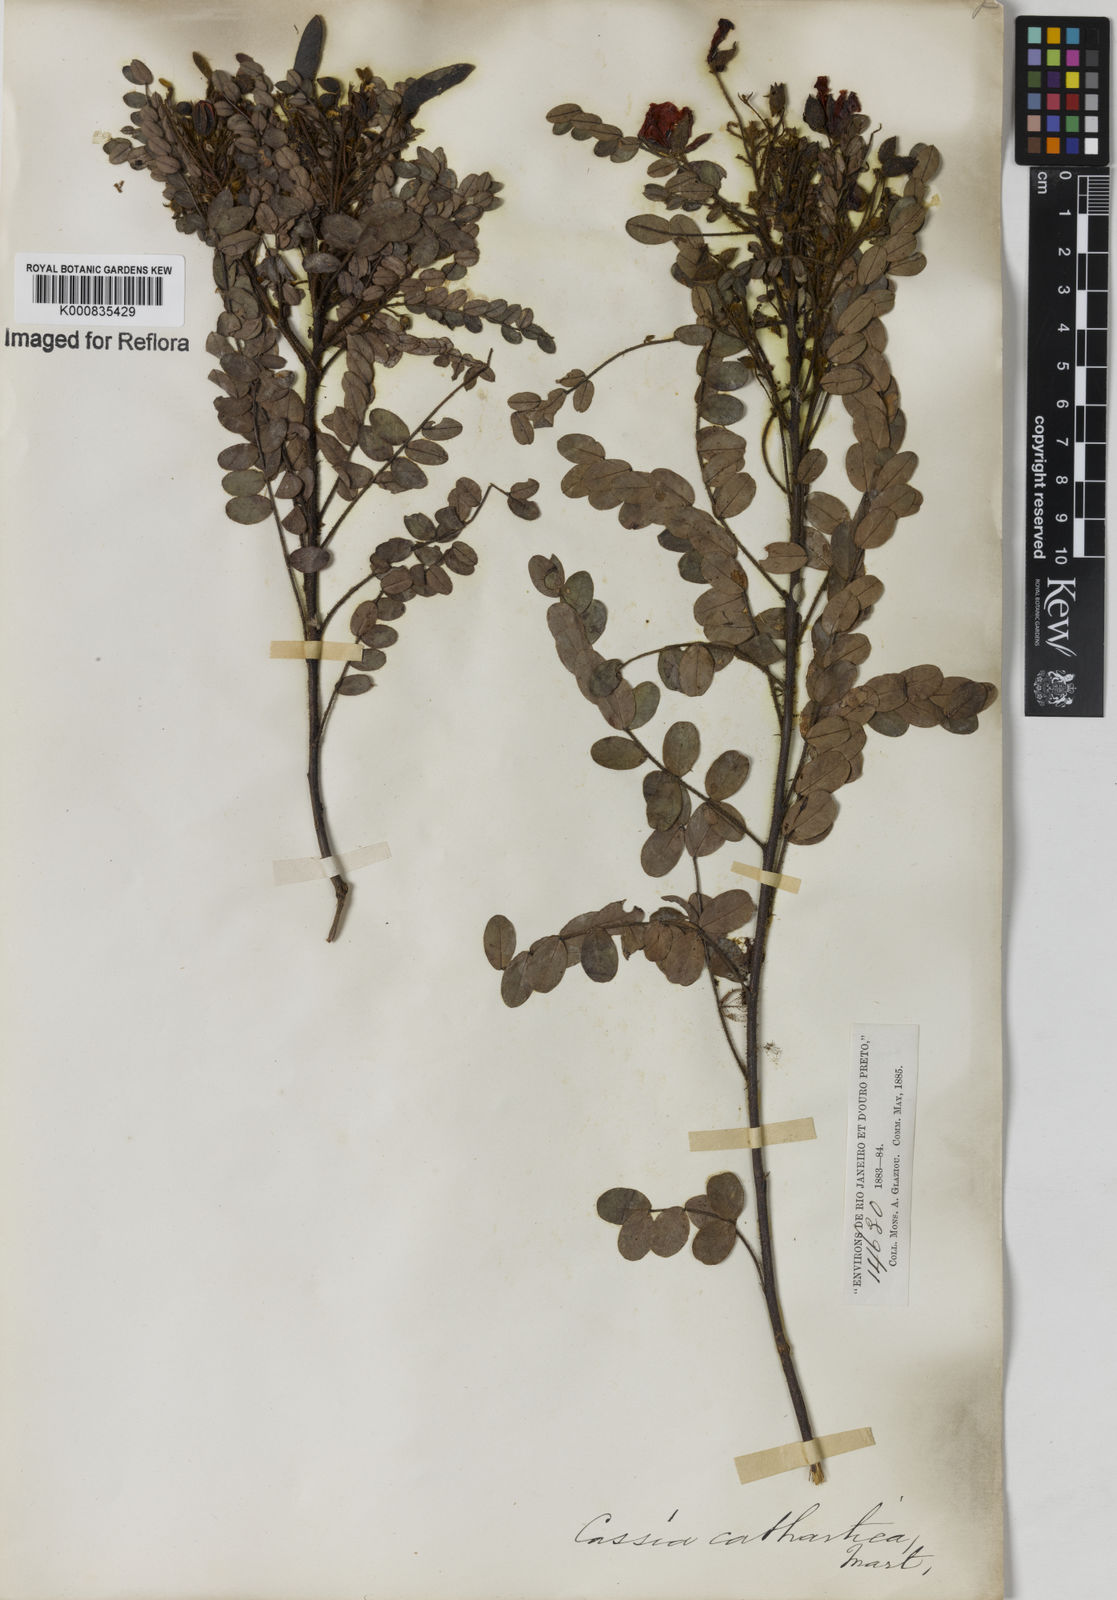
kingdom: Plantae
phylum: Tracheophyta
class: Magnoliopsida
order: Fabales
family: Fabaceae
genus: Chamaecrista
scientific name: Chamaecrista cathartica
